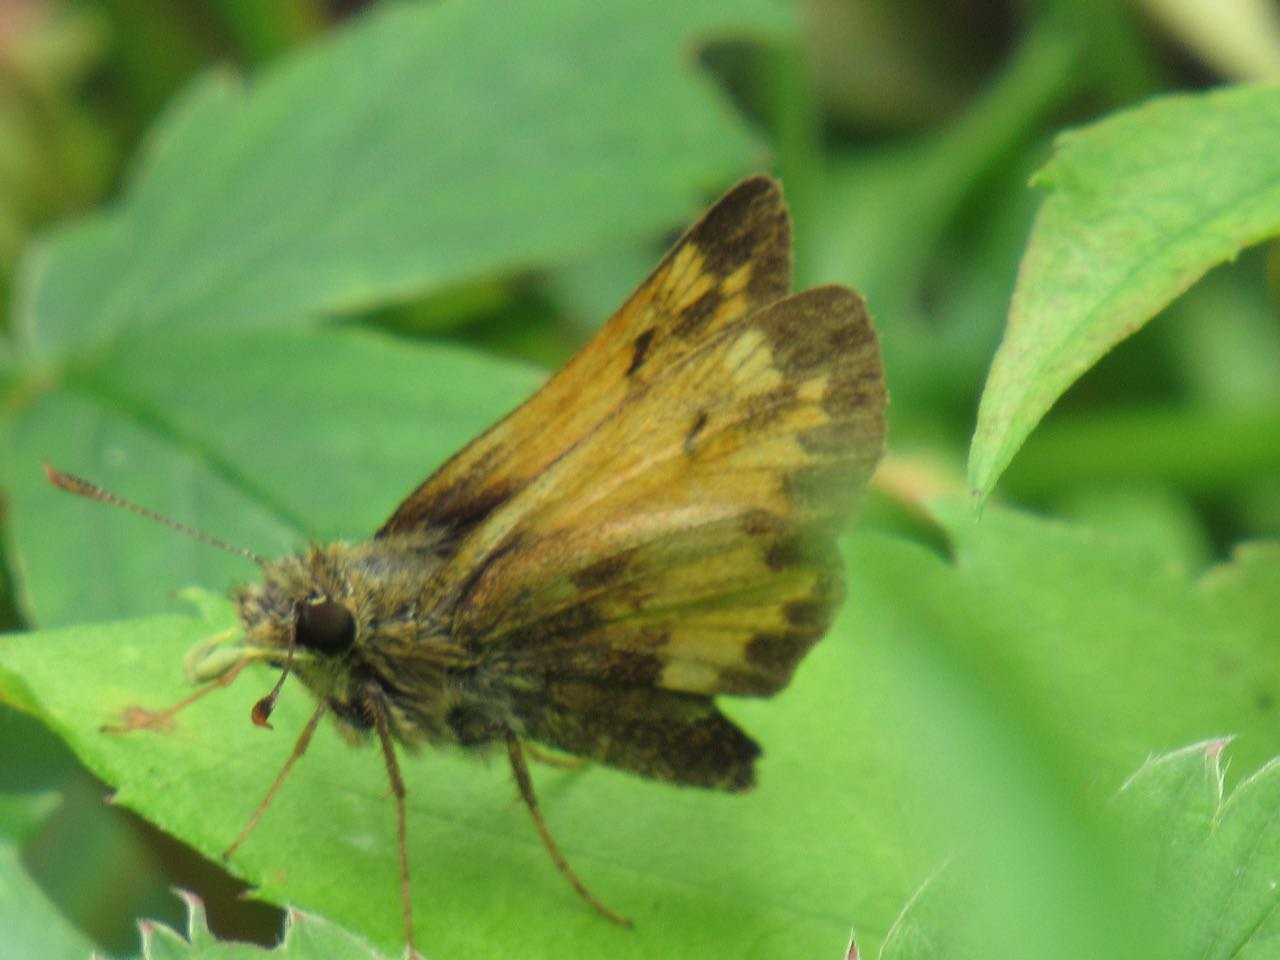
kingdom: Animalia
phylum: Arthropoda
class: Insecta
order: Lepidoptera
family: Hesperiidae
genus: Lon
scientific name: Lon hobomok
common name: Hobomok Skipper
